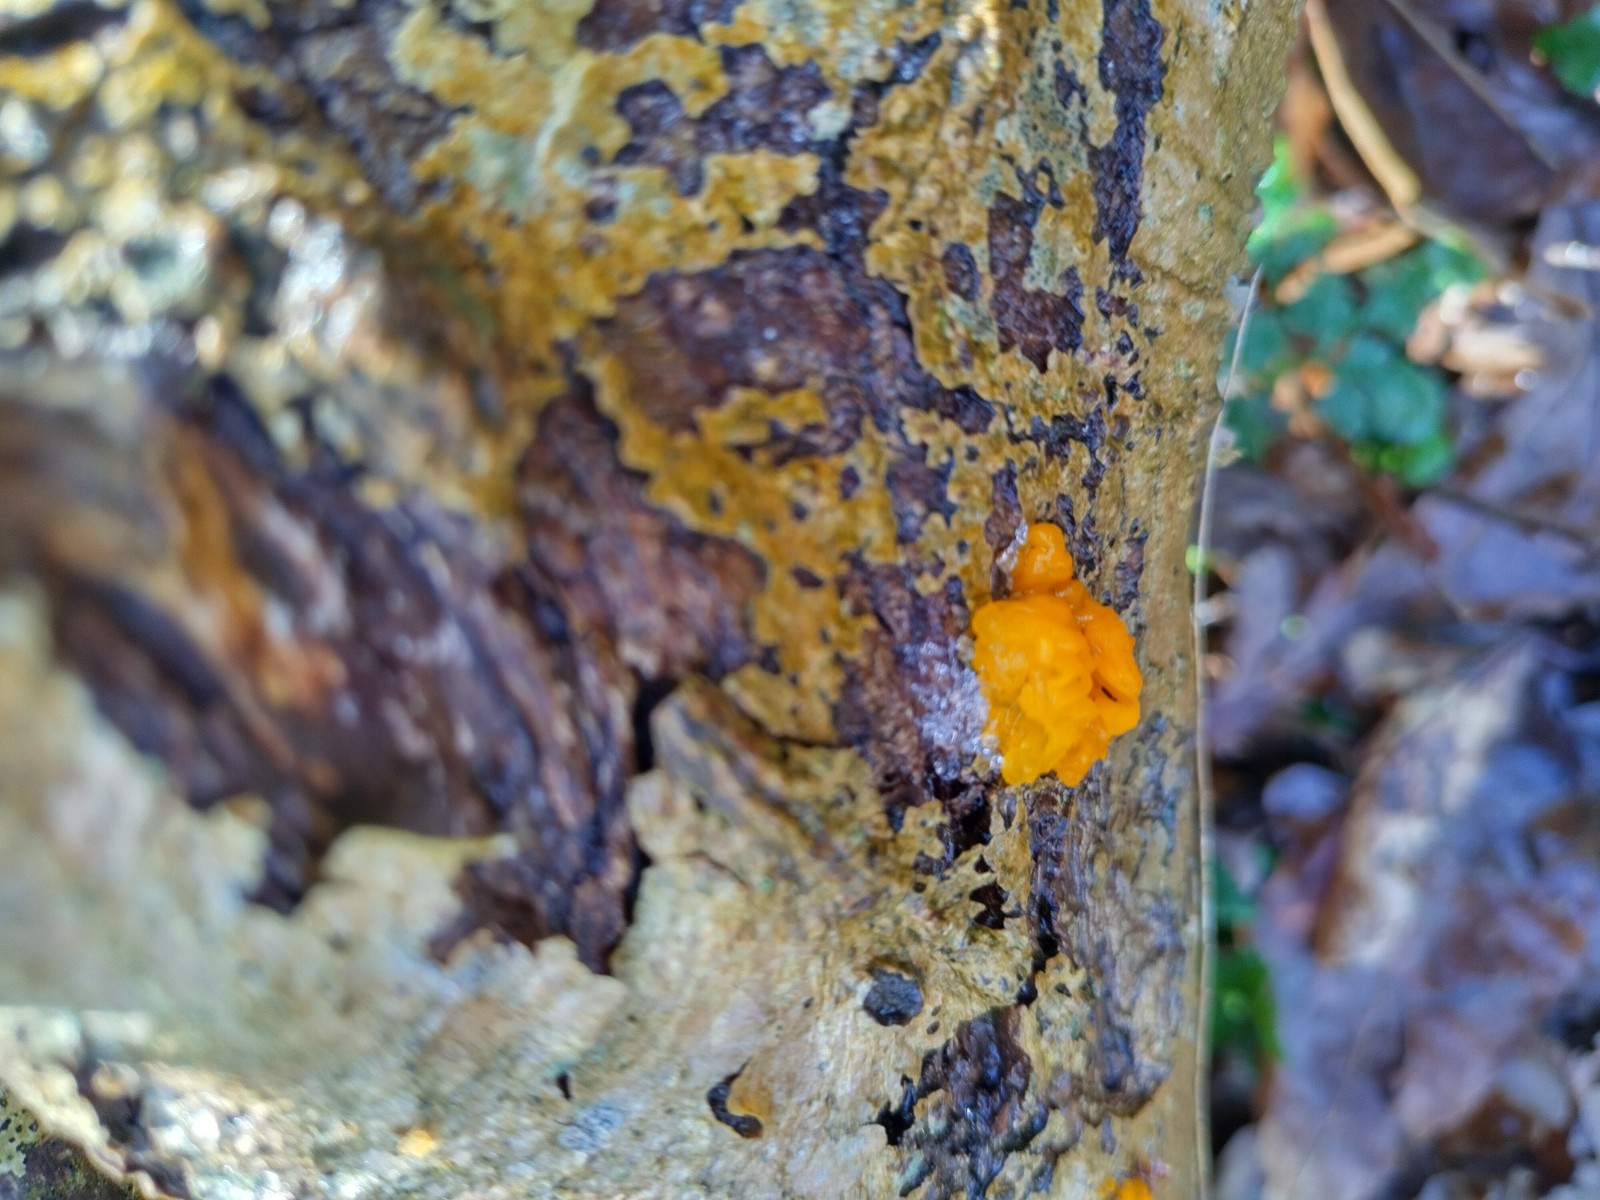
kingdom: Fungi
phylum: Basidiomycota
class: Tremellomycetes
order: Tremellales
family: Tremellaceae
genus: Tremella
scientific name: Tremella mesenterica
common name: gul bævresvamp
